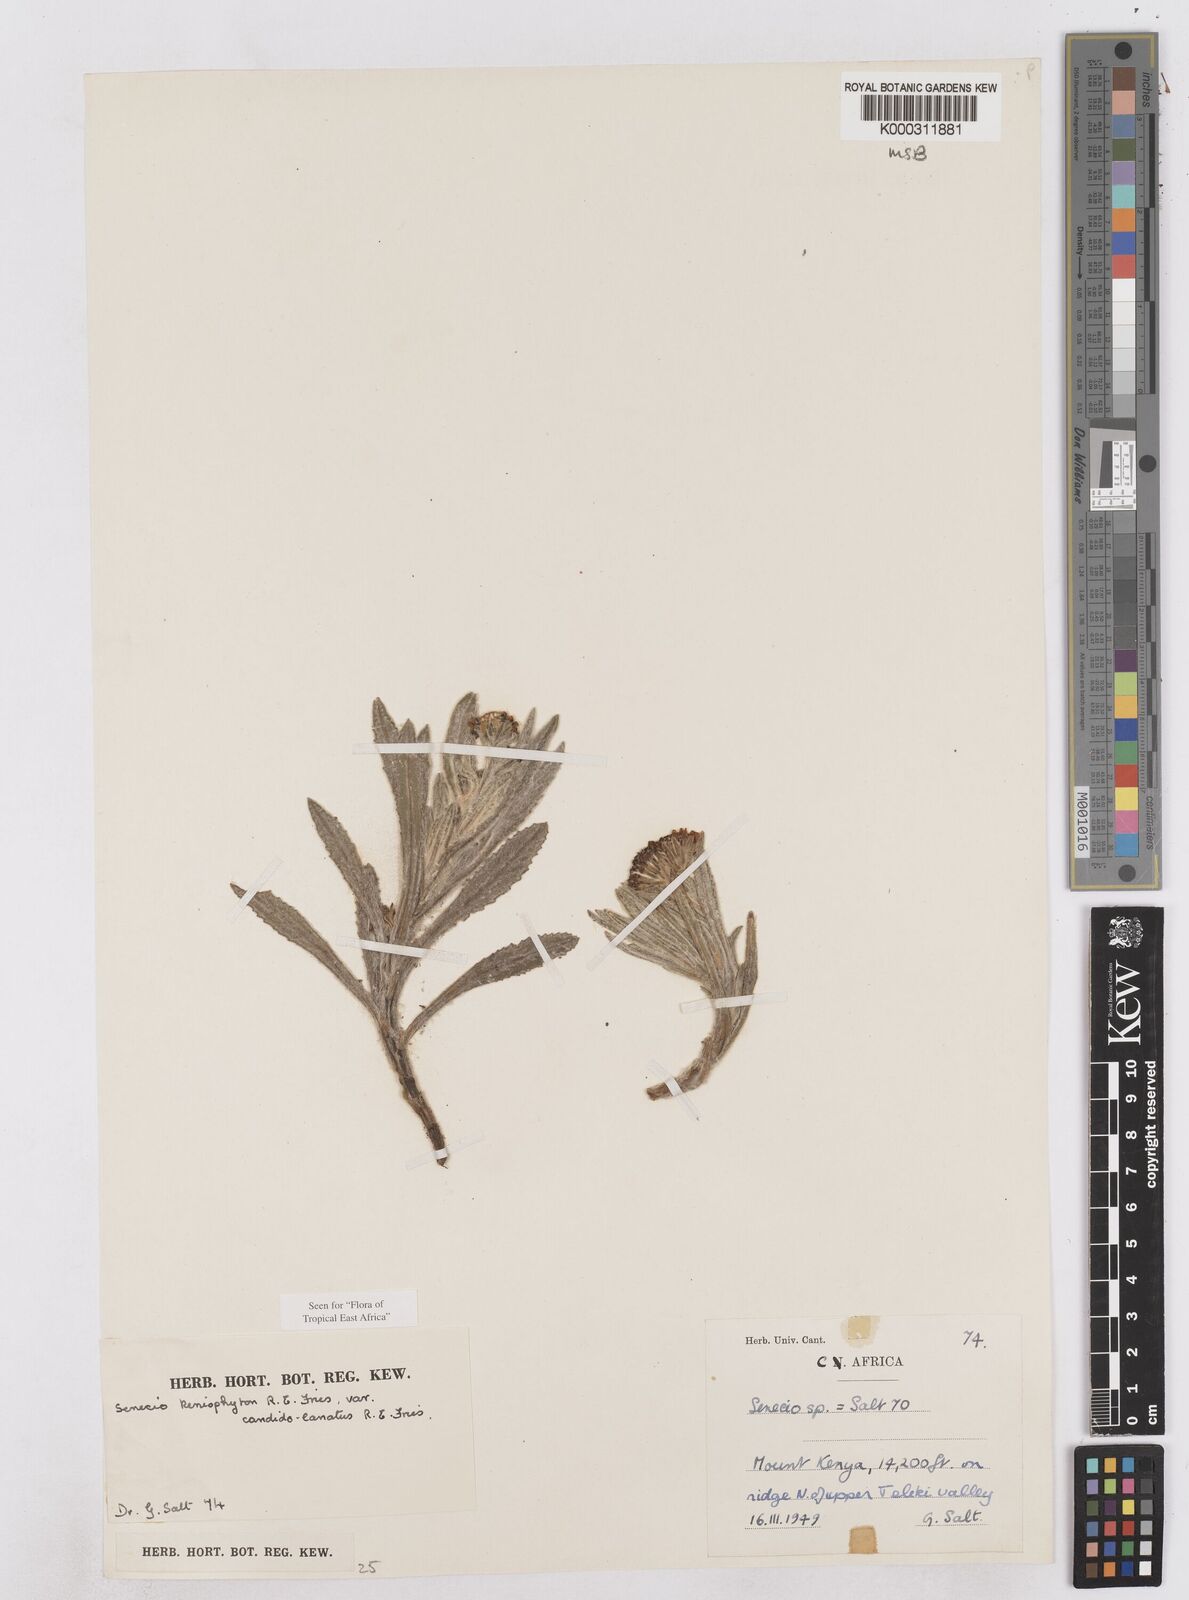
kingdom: Plantae
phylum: Tracheophyta
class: Magnoliopsida
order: Asterales
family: Asteraceae
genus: Senecio
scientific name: Senecio keniophytum
